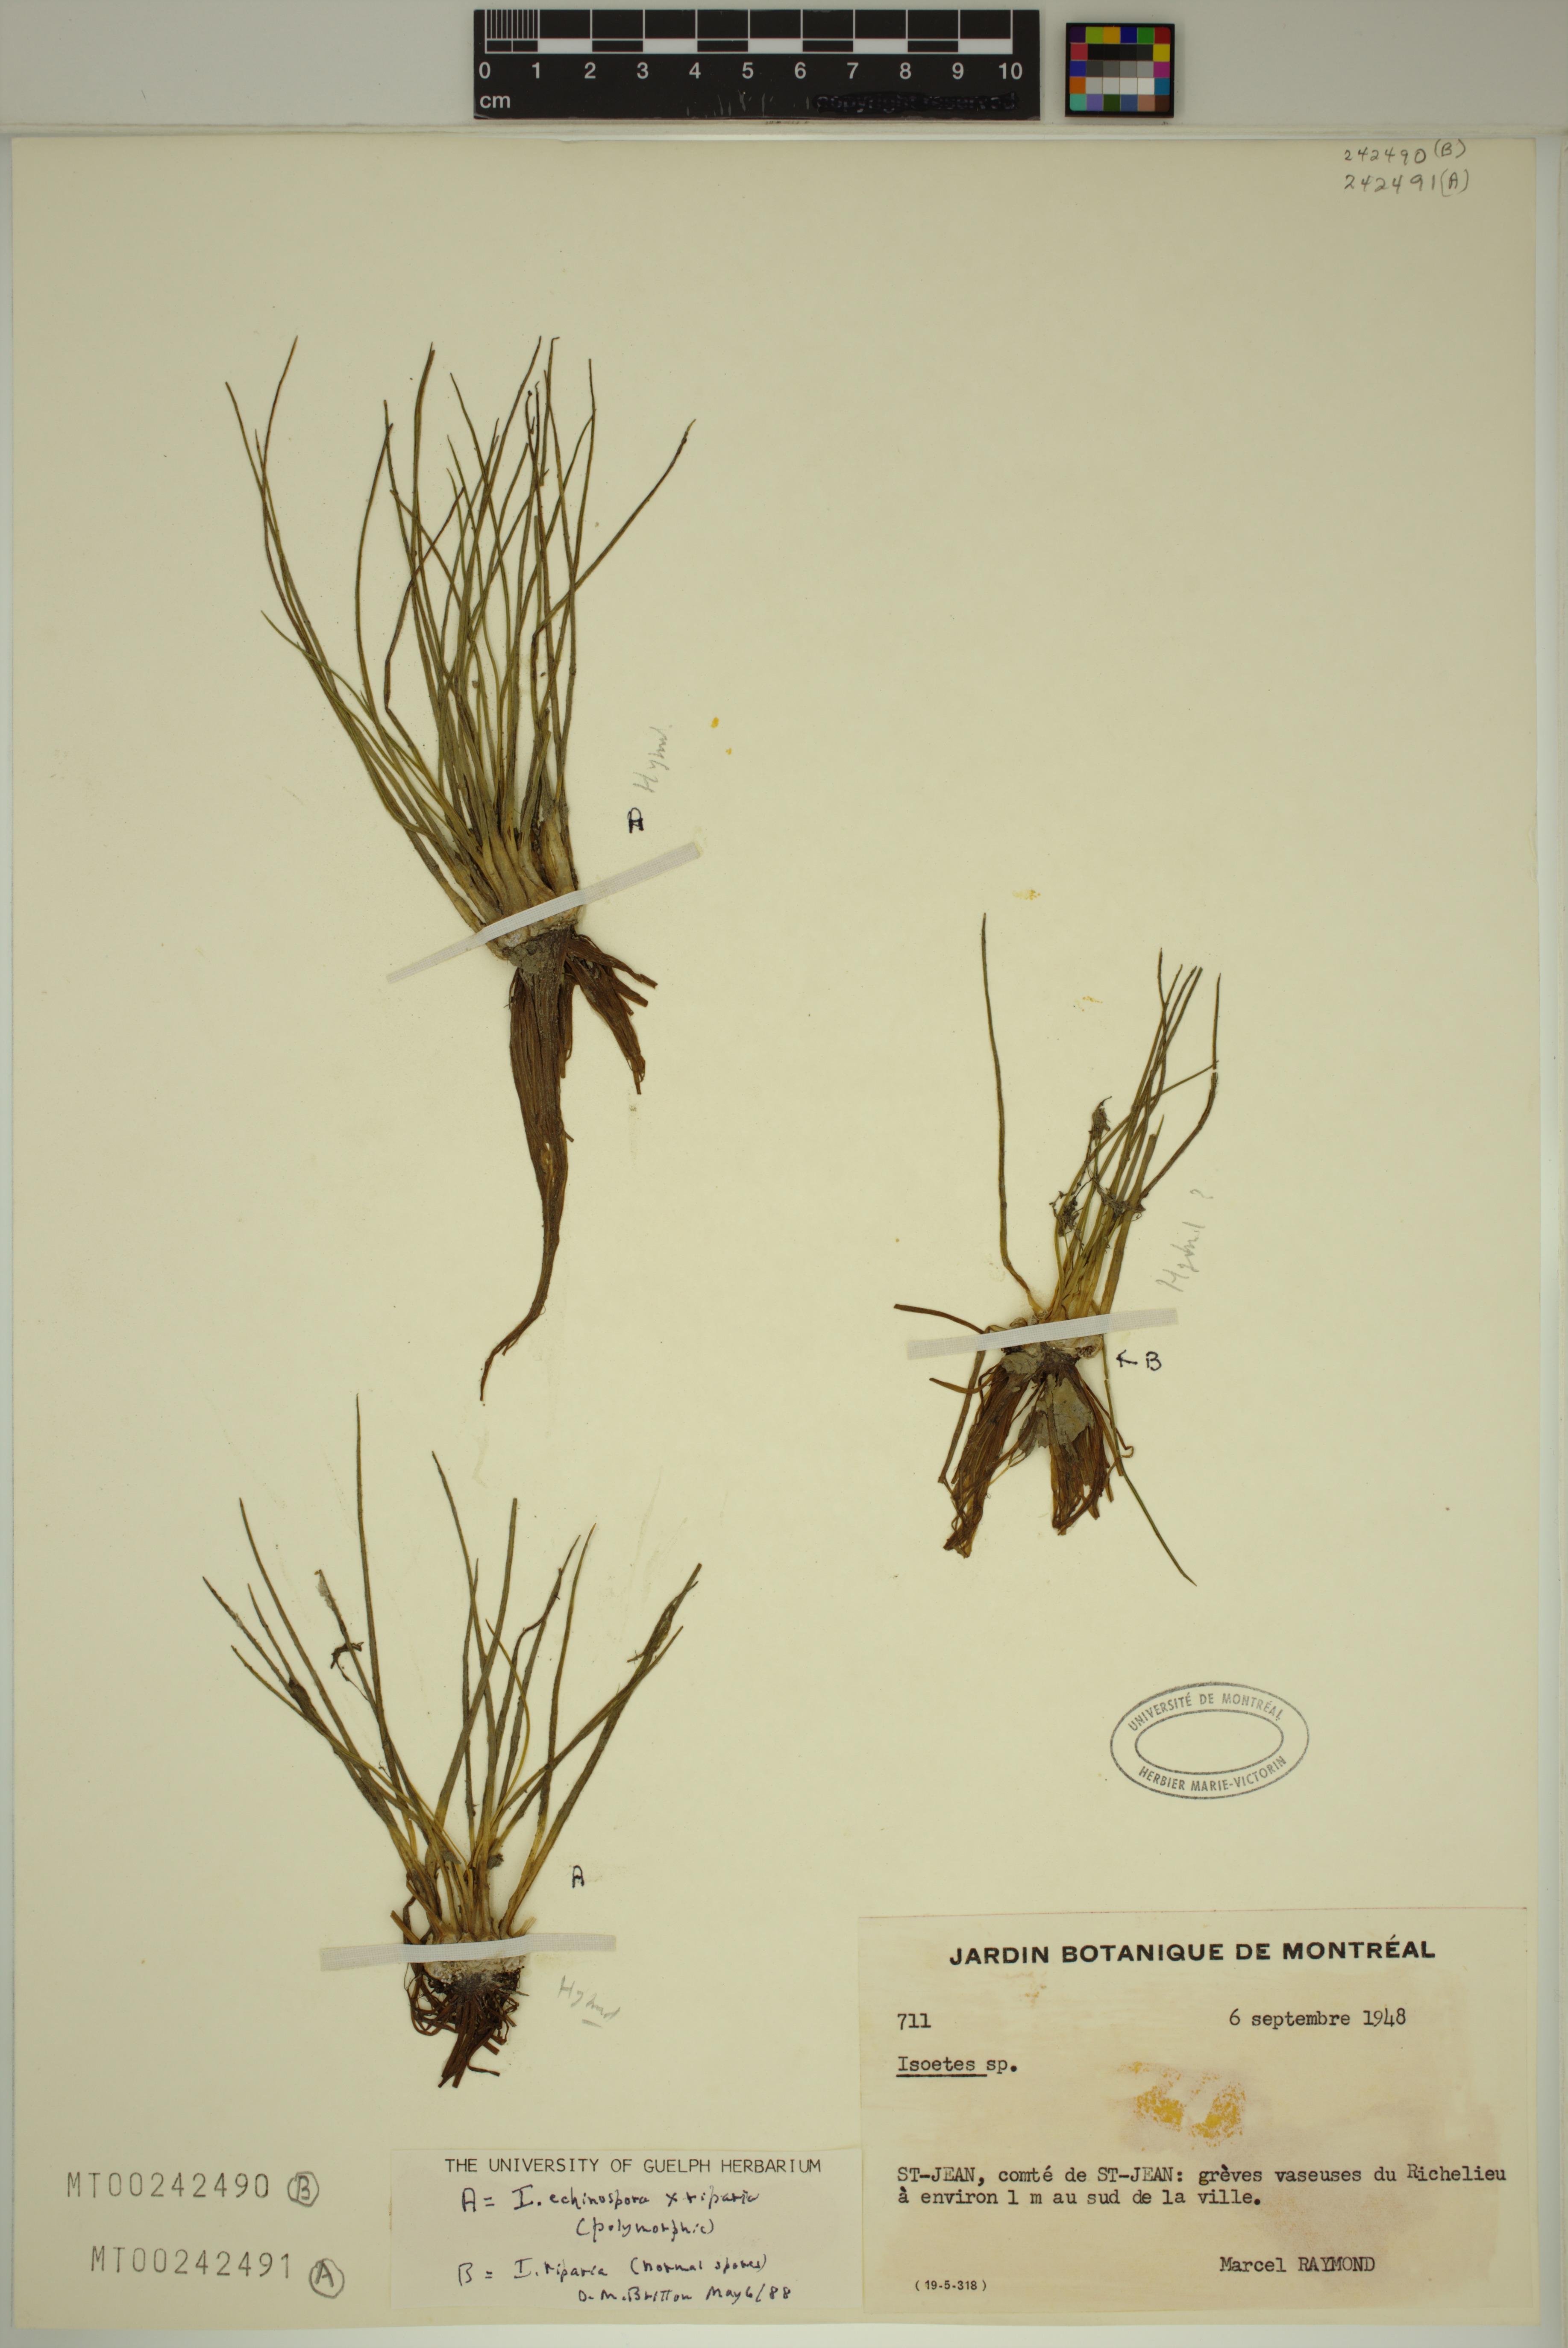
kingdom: Plantae
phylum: Tracheophyta
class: Lycopodiopsida
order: Isoetales
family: Isoetaceae
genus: Isoetes
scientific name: Isoetes septentrionalis
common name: Northern quillwort
